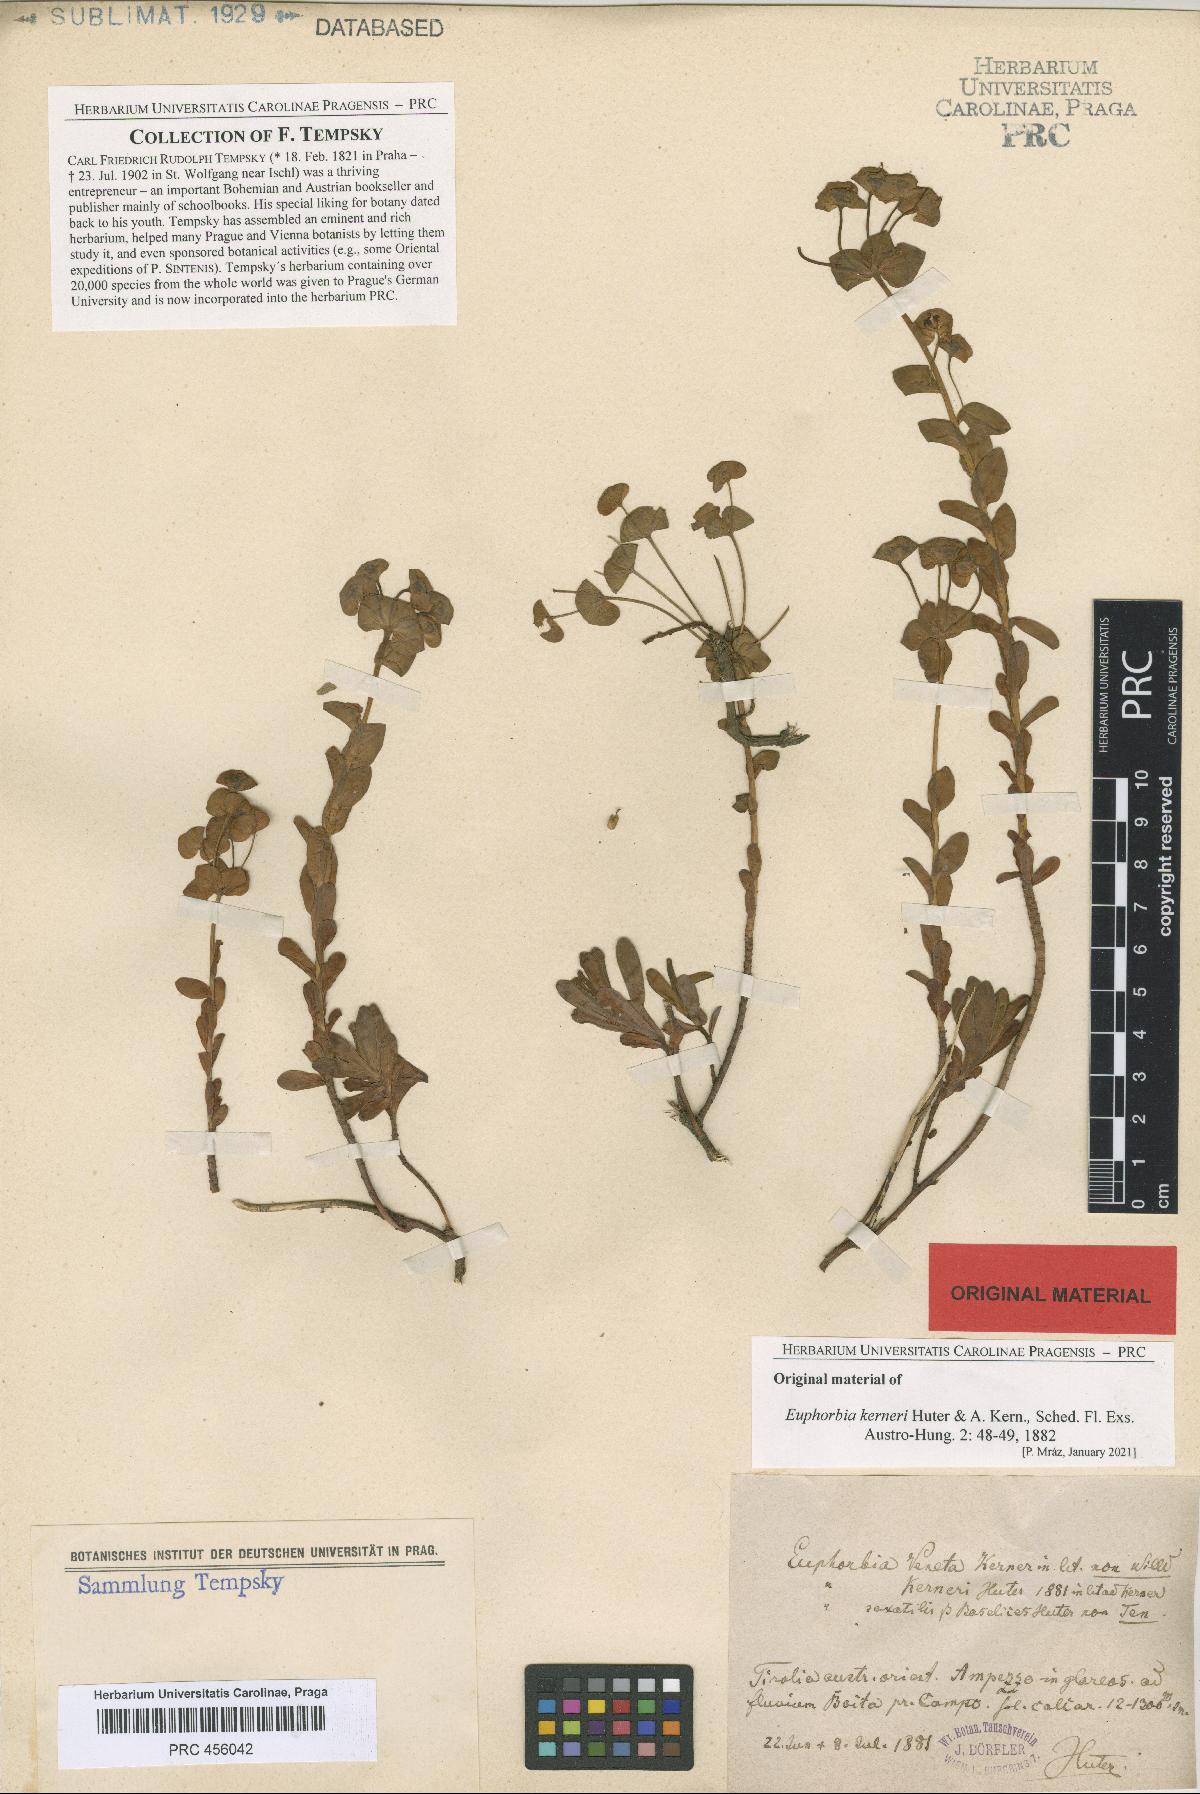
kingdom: Plantae
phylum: Tracheophyta
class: Magnoliopsida
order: Malpighiales
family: Euphorbiaceae
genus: Euphorbia
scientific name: Euphorbia kerneri
